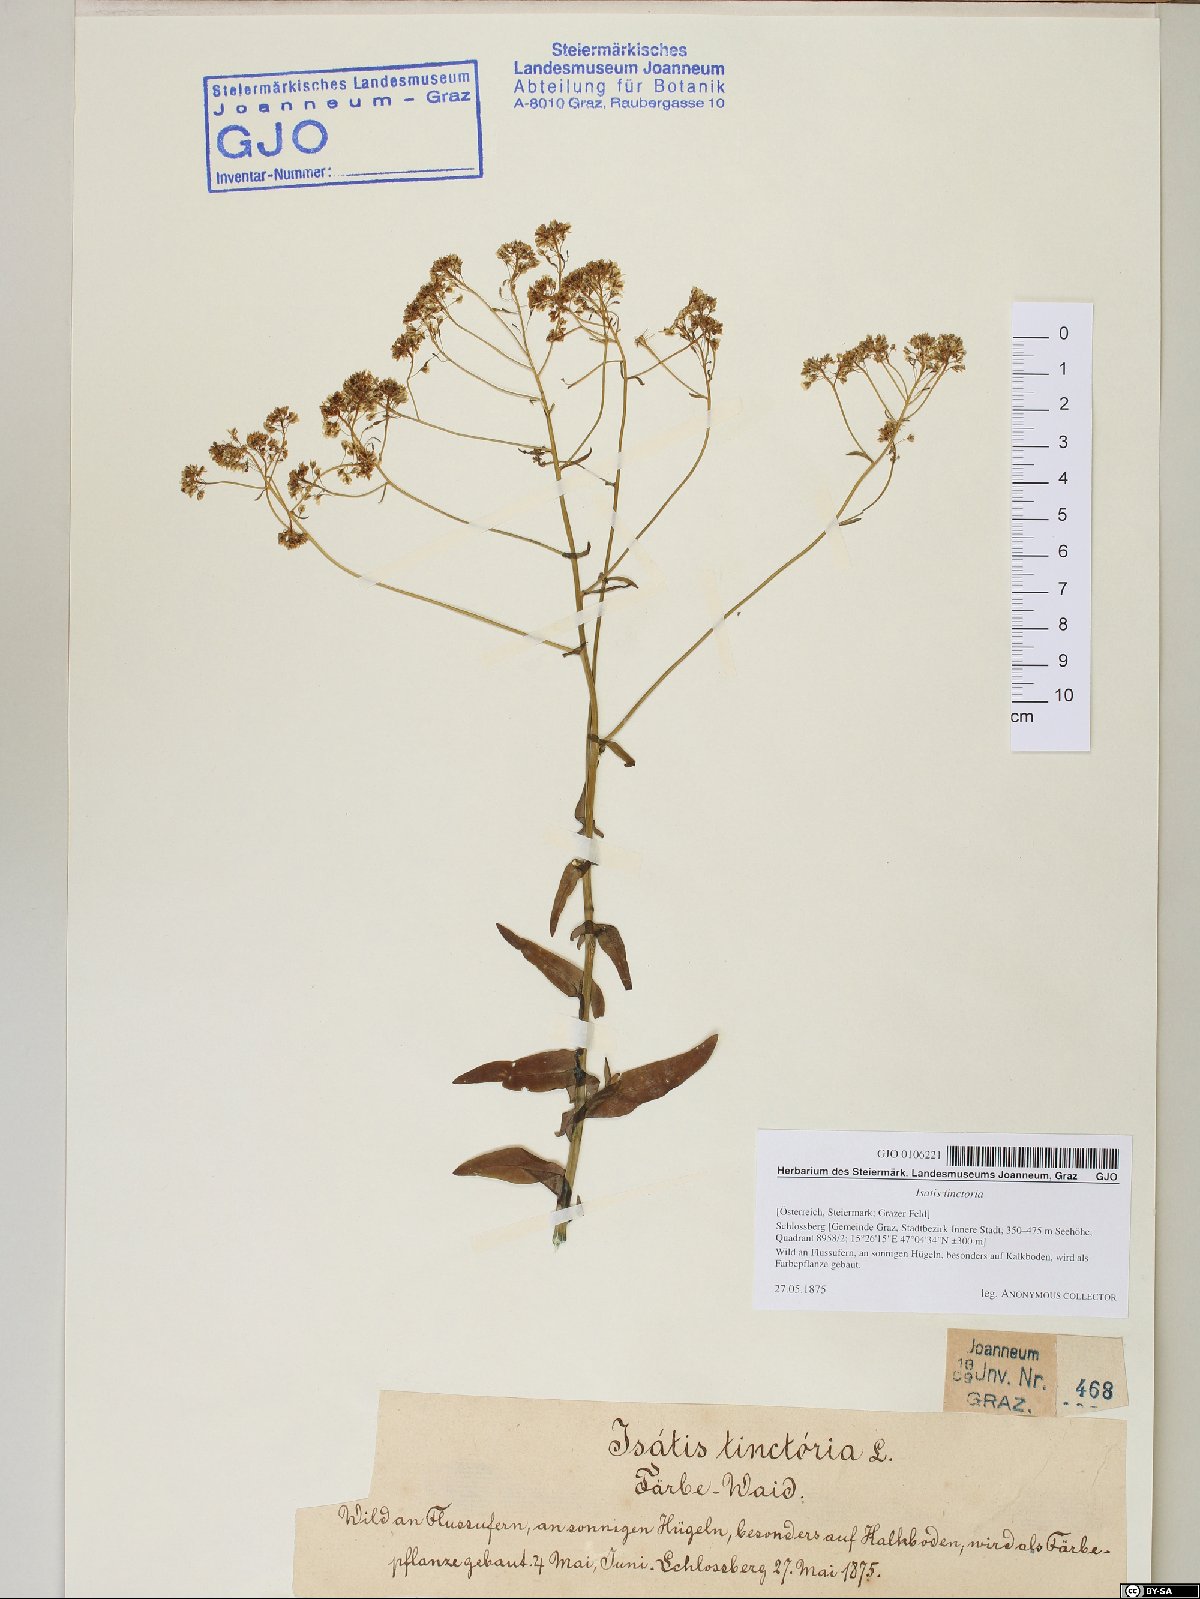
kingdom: Plantae
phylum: Tracheophyta
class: Magnoliopsida
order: Brassicales
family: Brassicaceae
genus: Isatis
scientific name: Isatis tinctoria
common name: Woad
